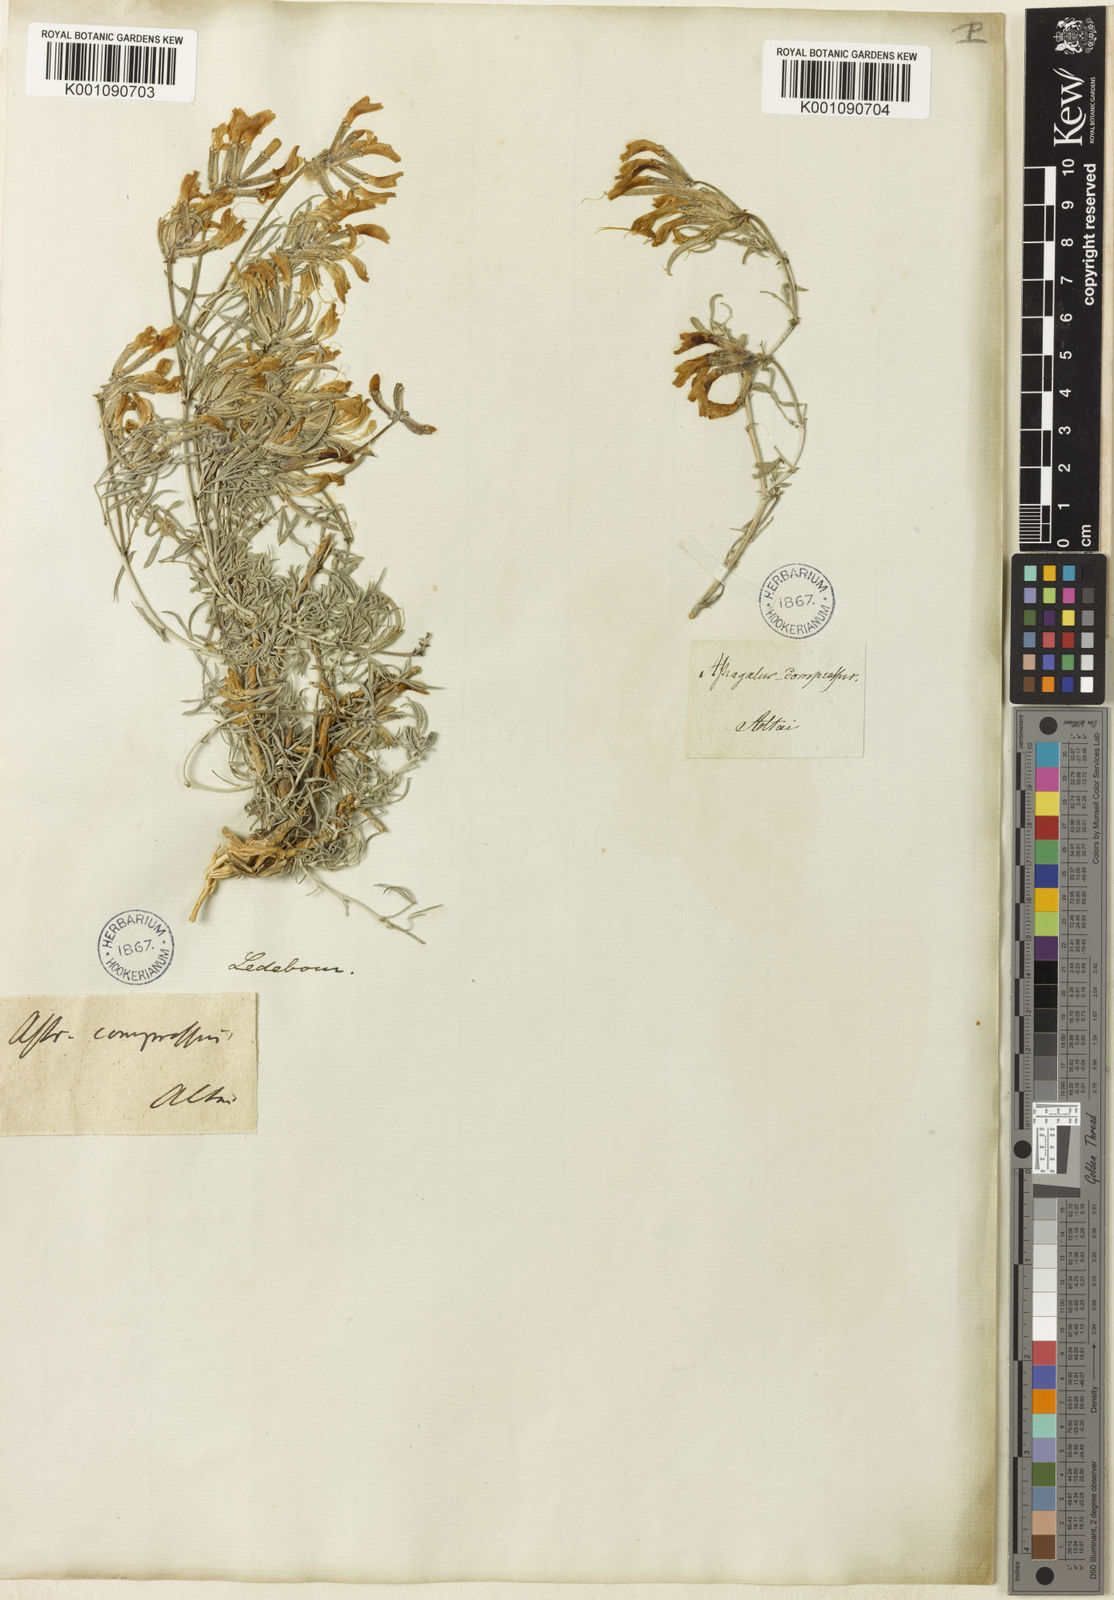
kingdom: Plantae
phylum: Tracheophyta
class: Magnoliopsida
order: Fabales
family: Fabaceae
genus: Astragalus
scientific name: Astragalus
